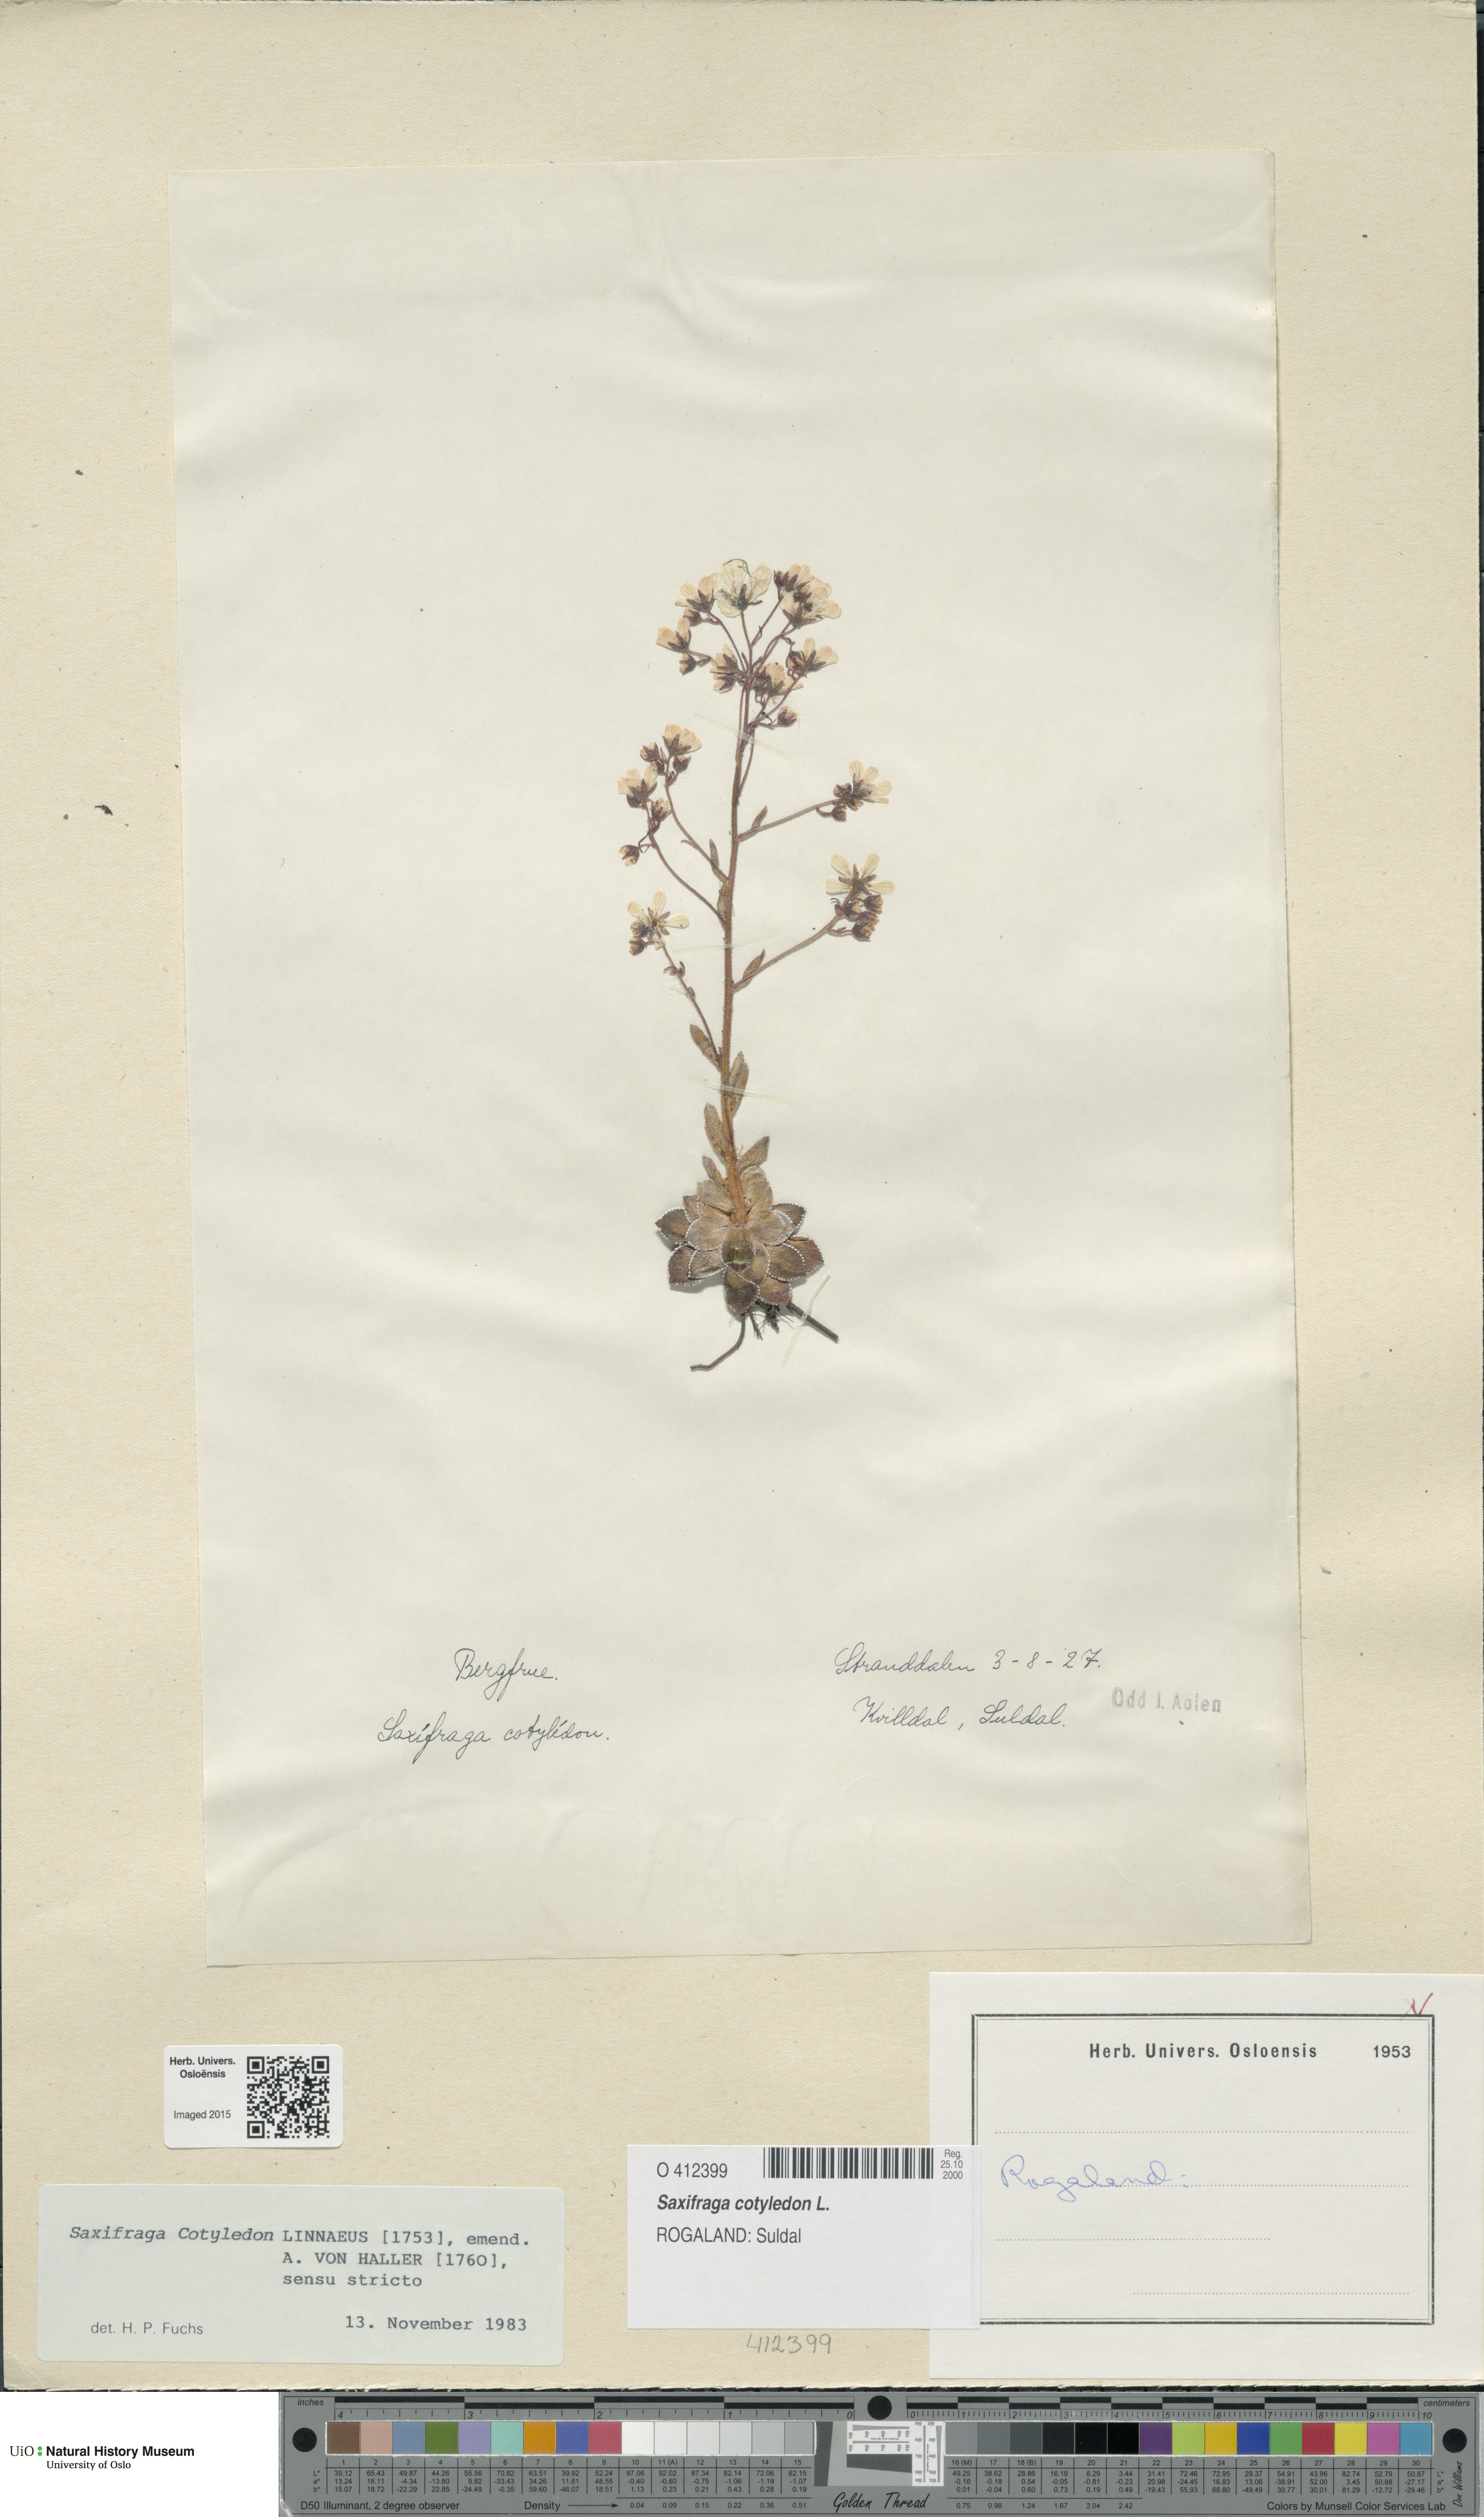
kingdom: Plantae
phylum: Tracheophyta
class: Magnoliopsida
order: Saxifragales
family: Saxifragaceae
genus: Saxifraga
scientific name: Saxifraga cotyledon
